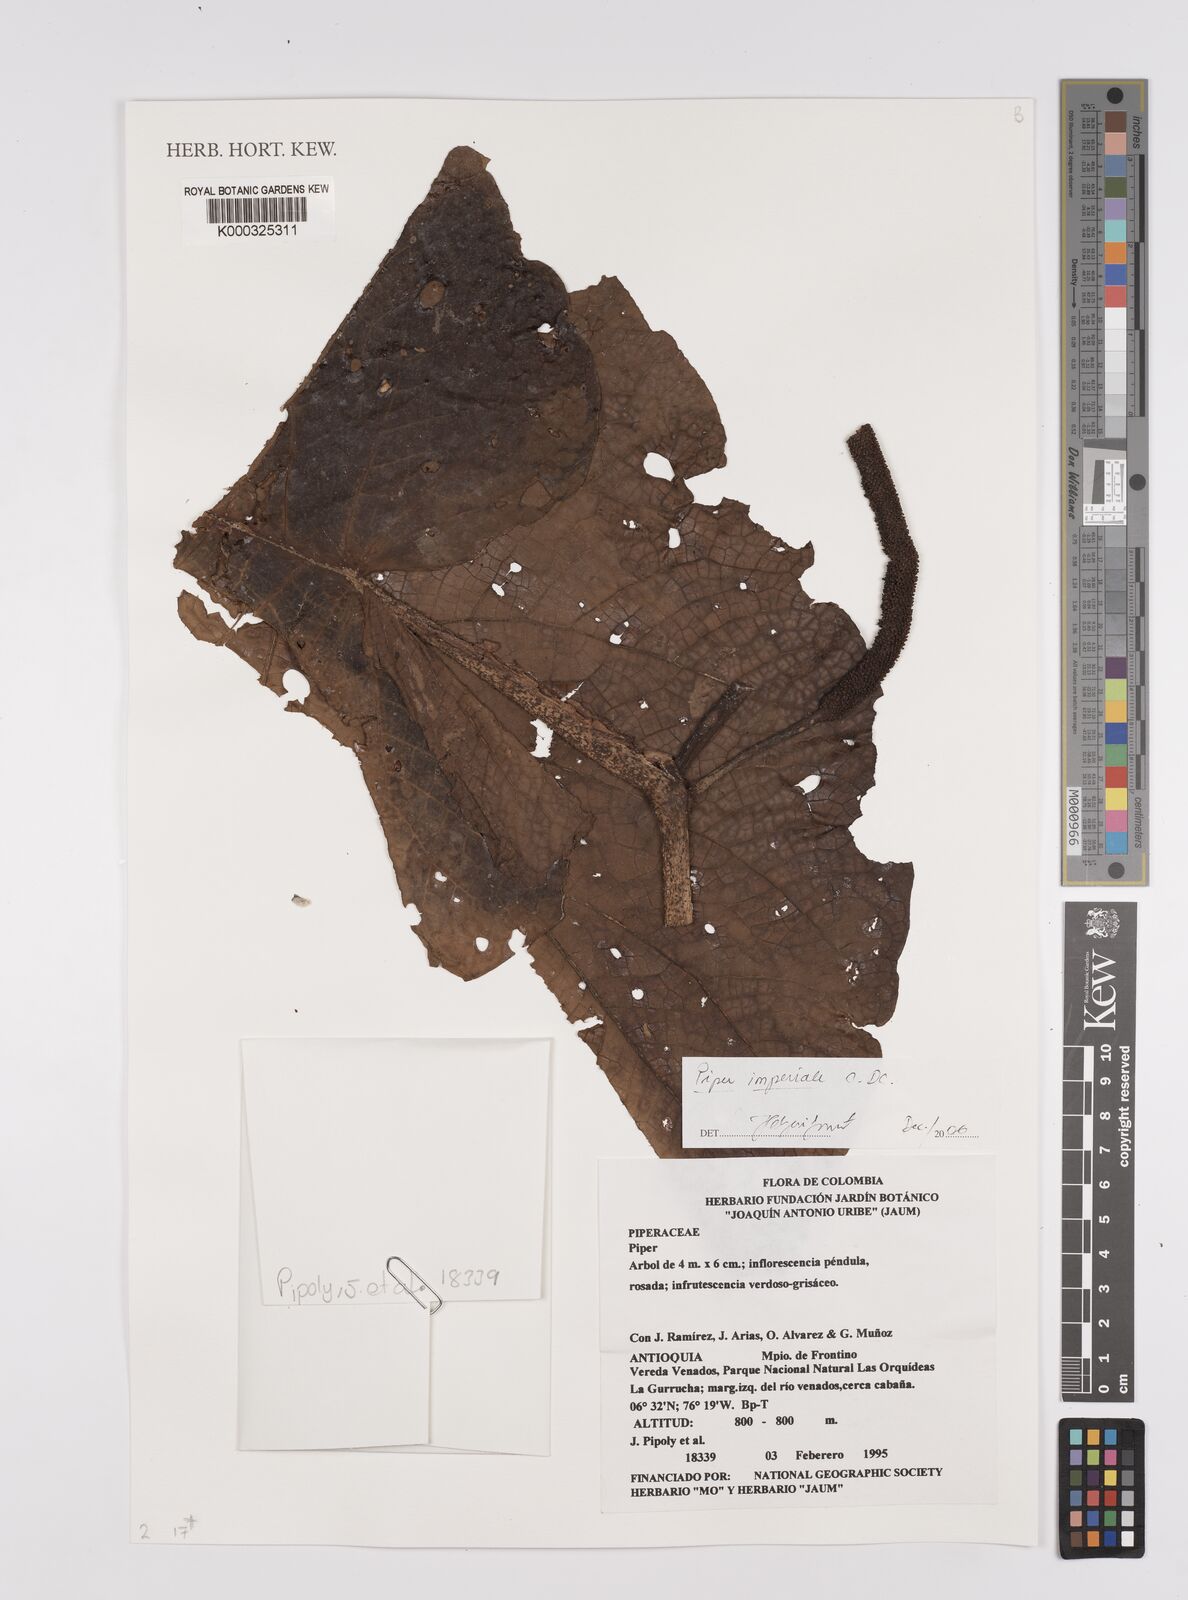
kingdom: Plantae
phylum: Tracheophyta
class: Magnoliopsida
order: Piperales
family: Piperaceae
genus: Piper
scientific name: Piper imperiale
